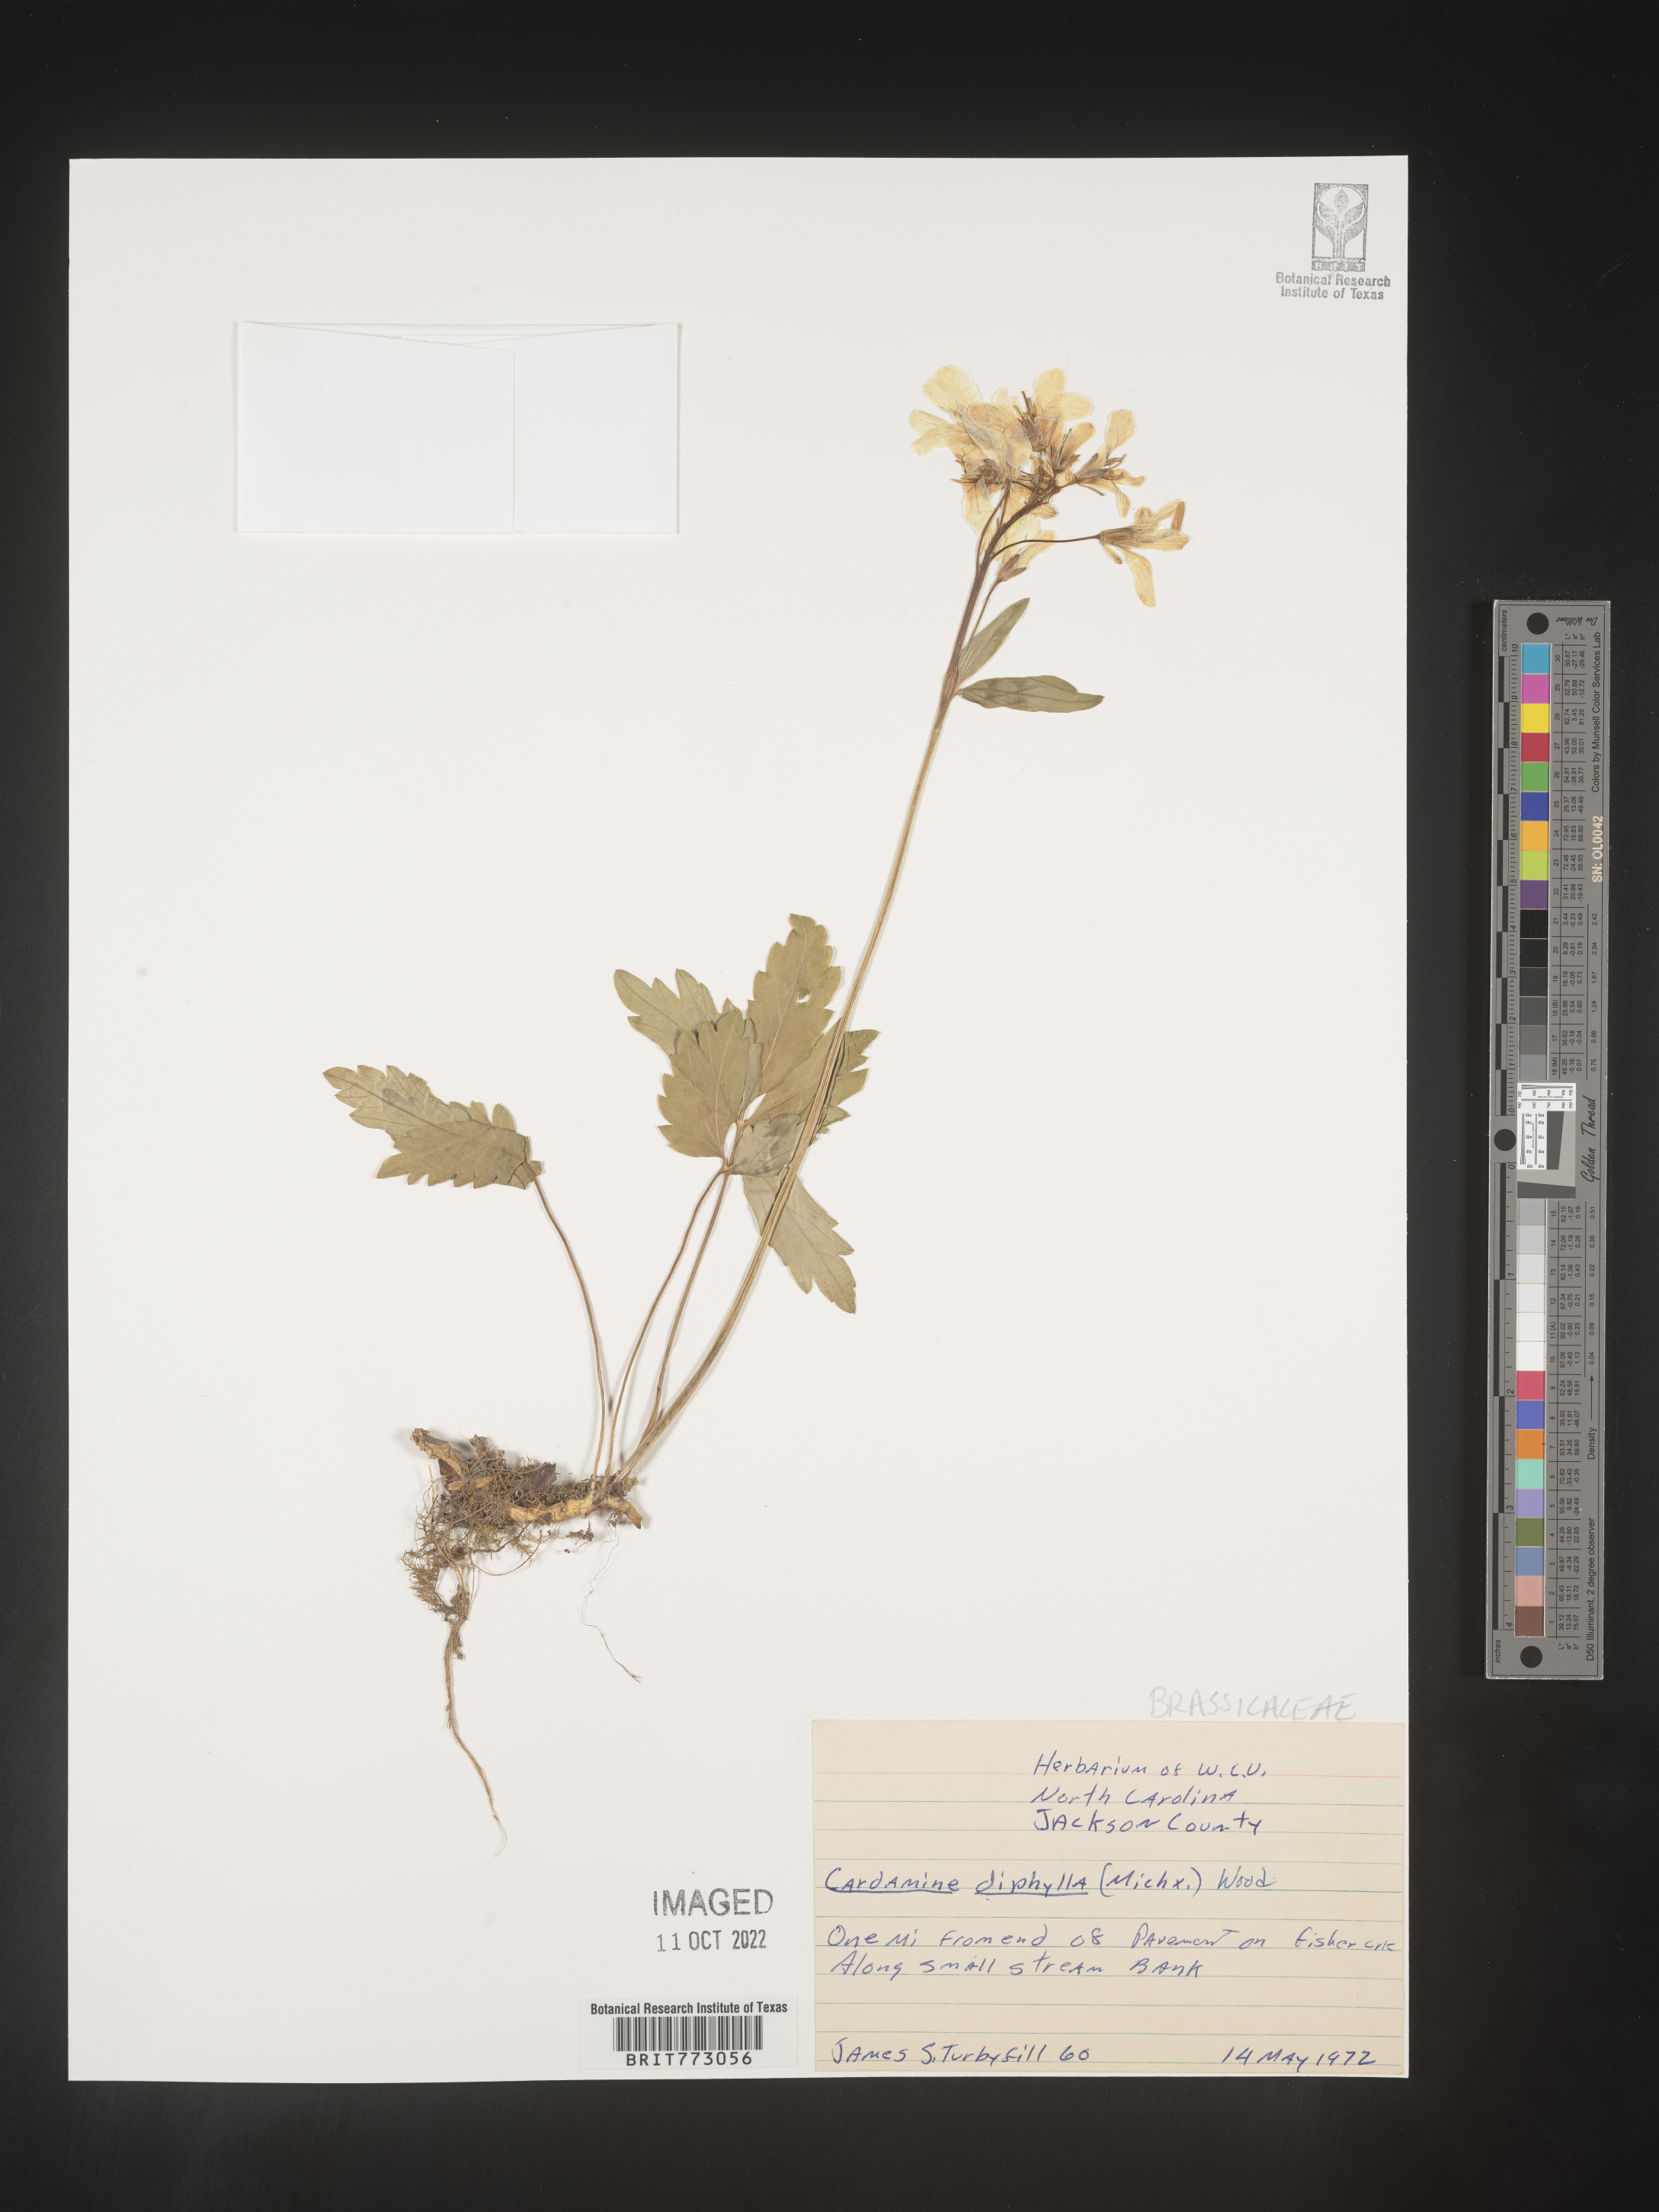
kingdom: Plantae
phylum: Tracheophyta
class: Magnoliopsida
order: Brassicales
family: Brassicaceae
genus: Cardamine
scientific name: Cardamine diphylla
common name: Broad-leaved toothwort
